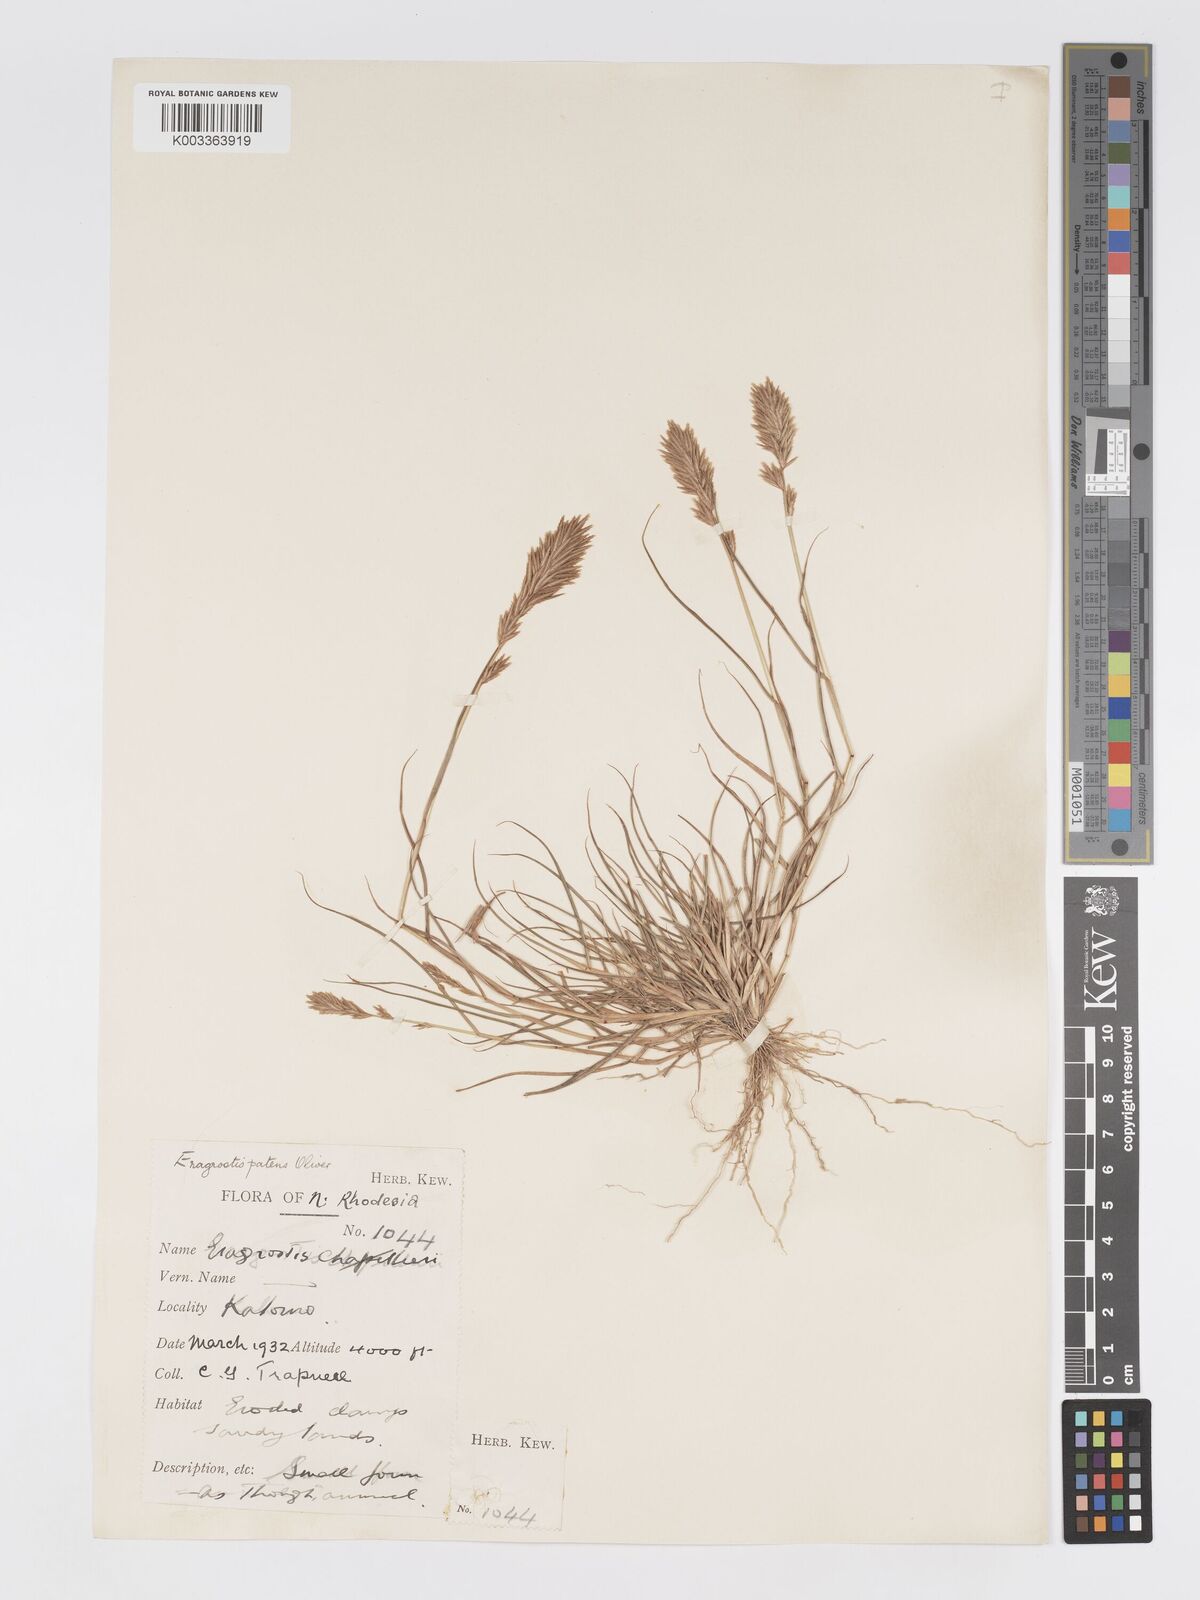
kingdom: Plantae
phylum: Tracheophyta
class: Liliopsida
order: Poales
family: Poaceae
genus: Eragrostis
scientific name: Eragrostis patens
